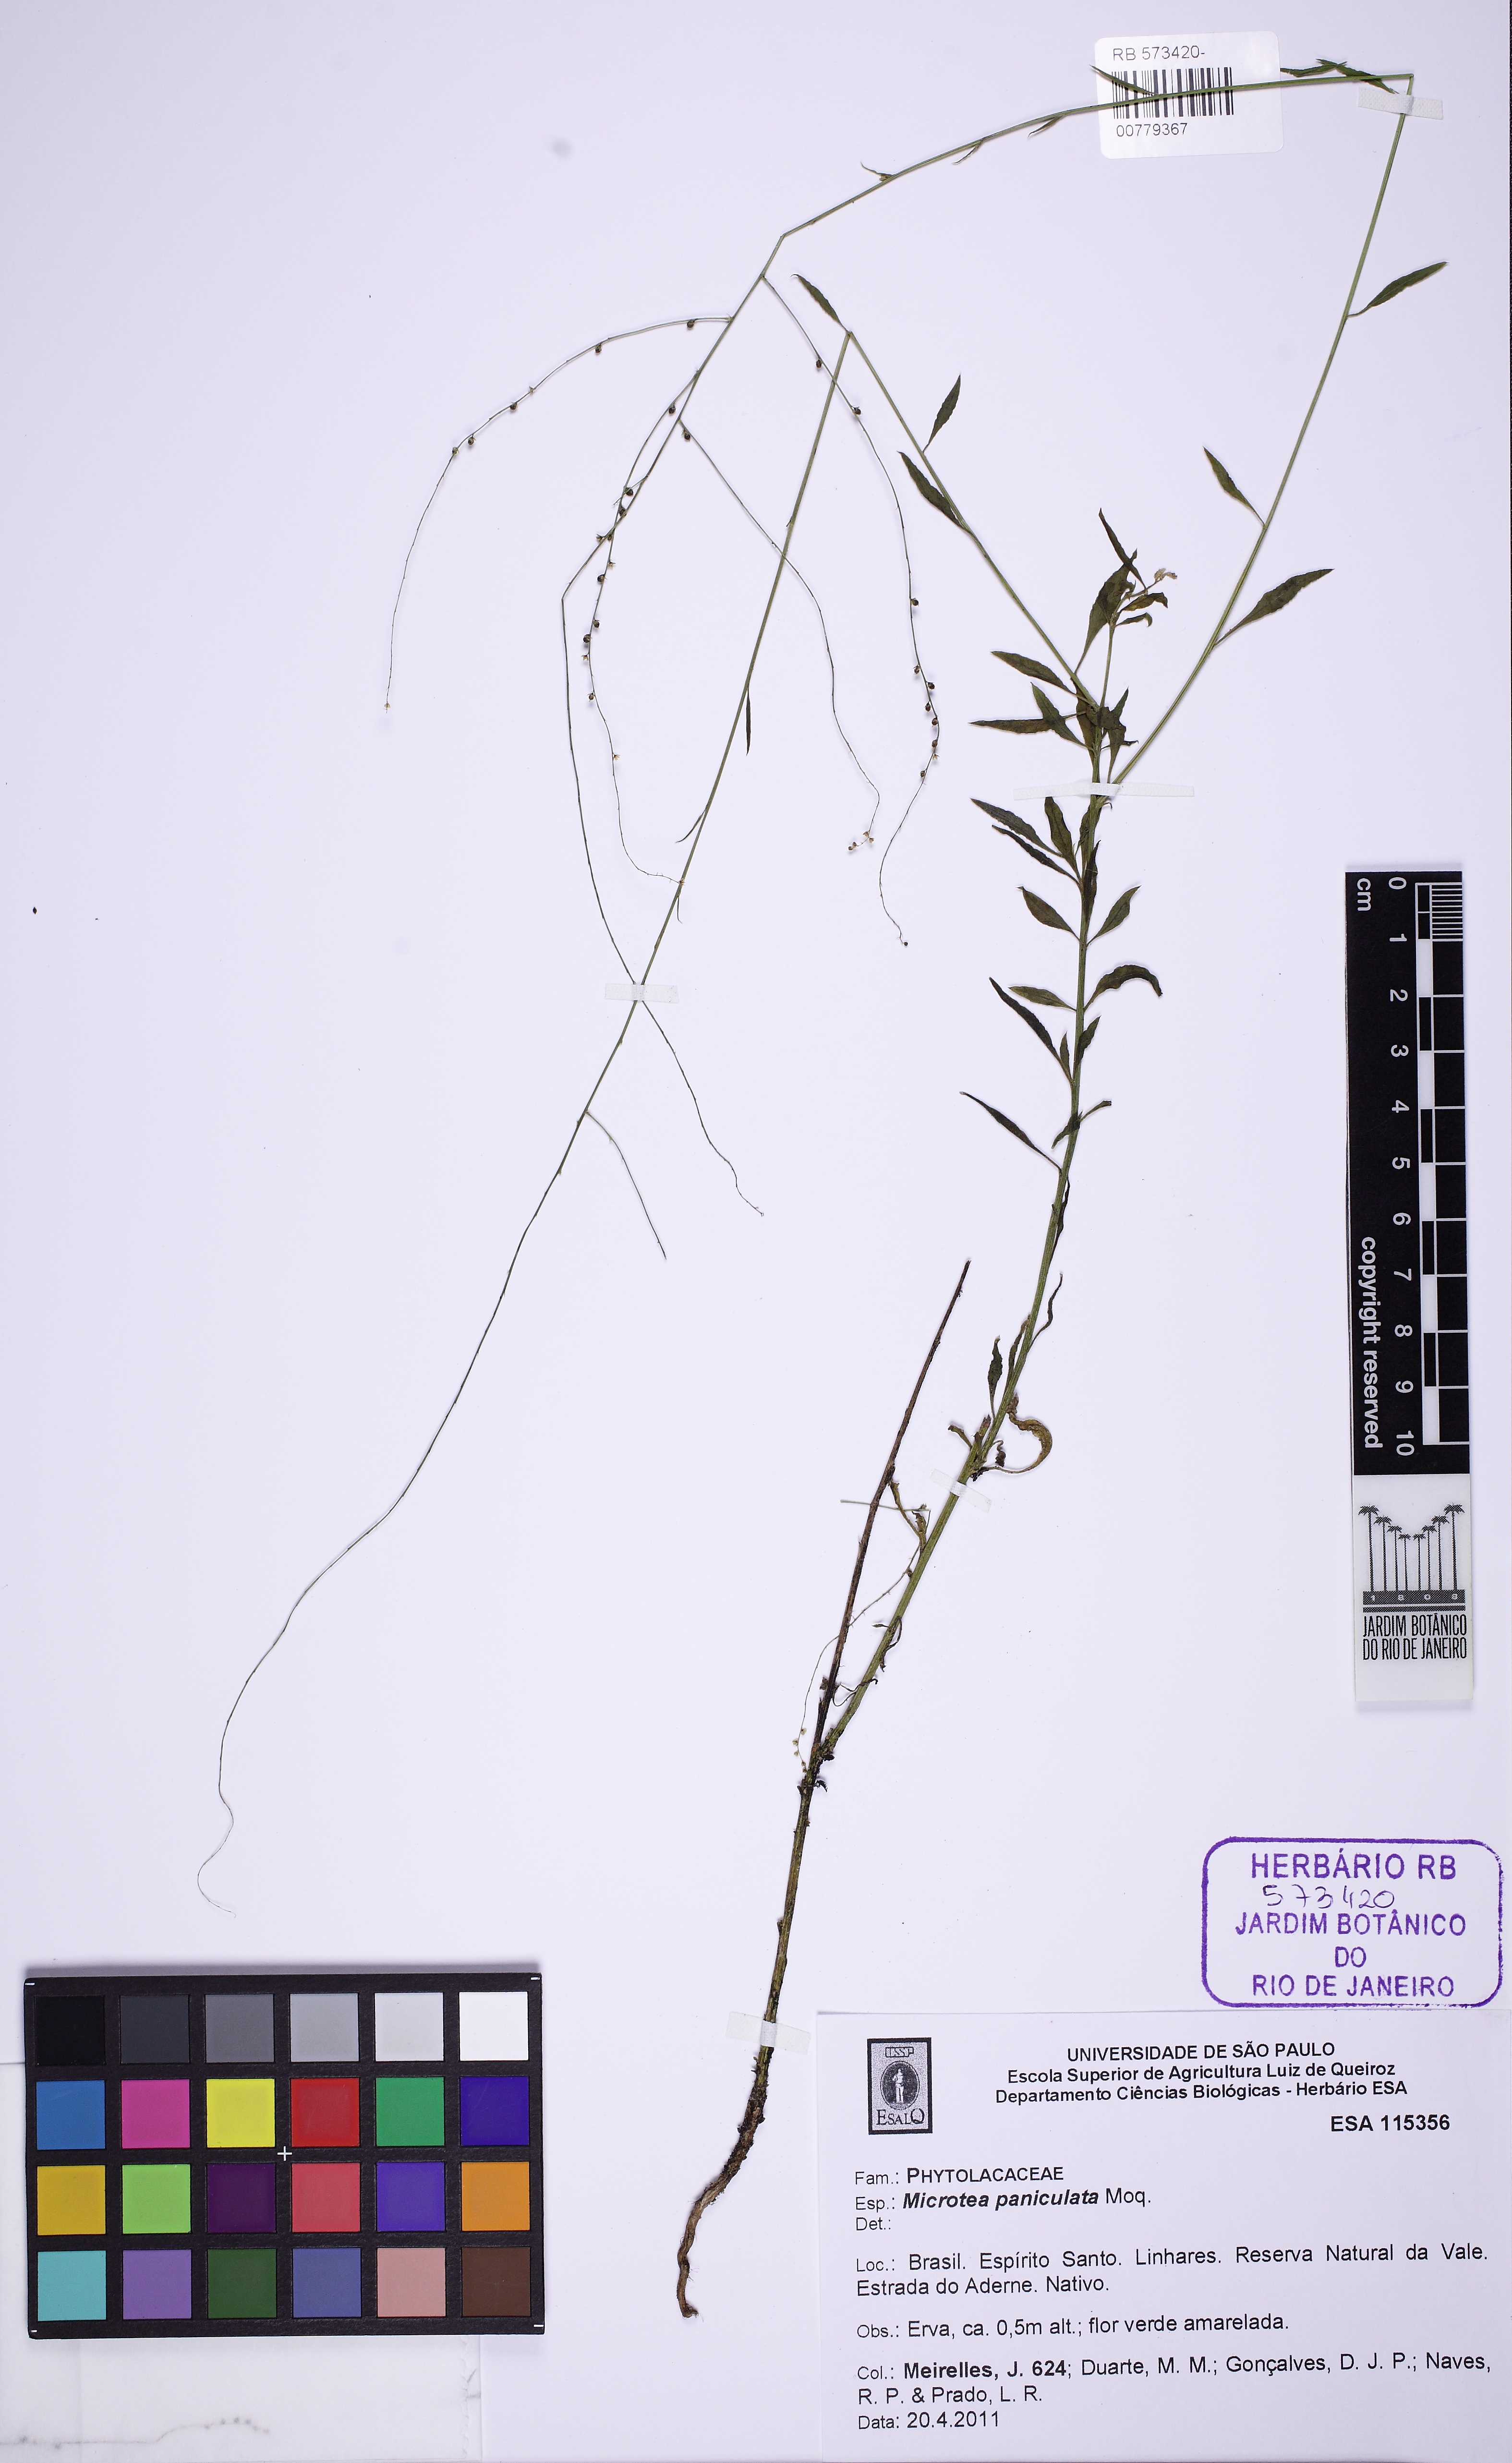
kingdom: Plantae
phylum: Tracheophyta
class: Magnoliopsida
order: Caryophyllales
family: Microteaceae
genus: Microtea
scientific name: Microtea paniculata
